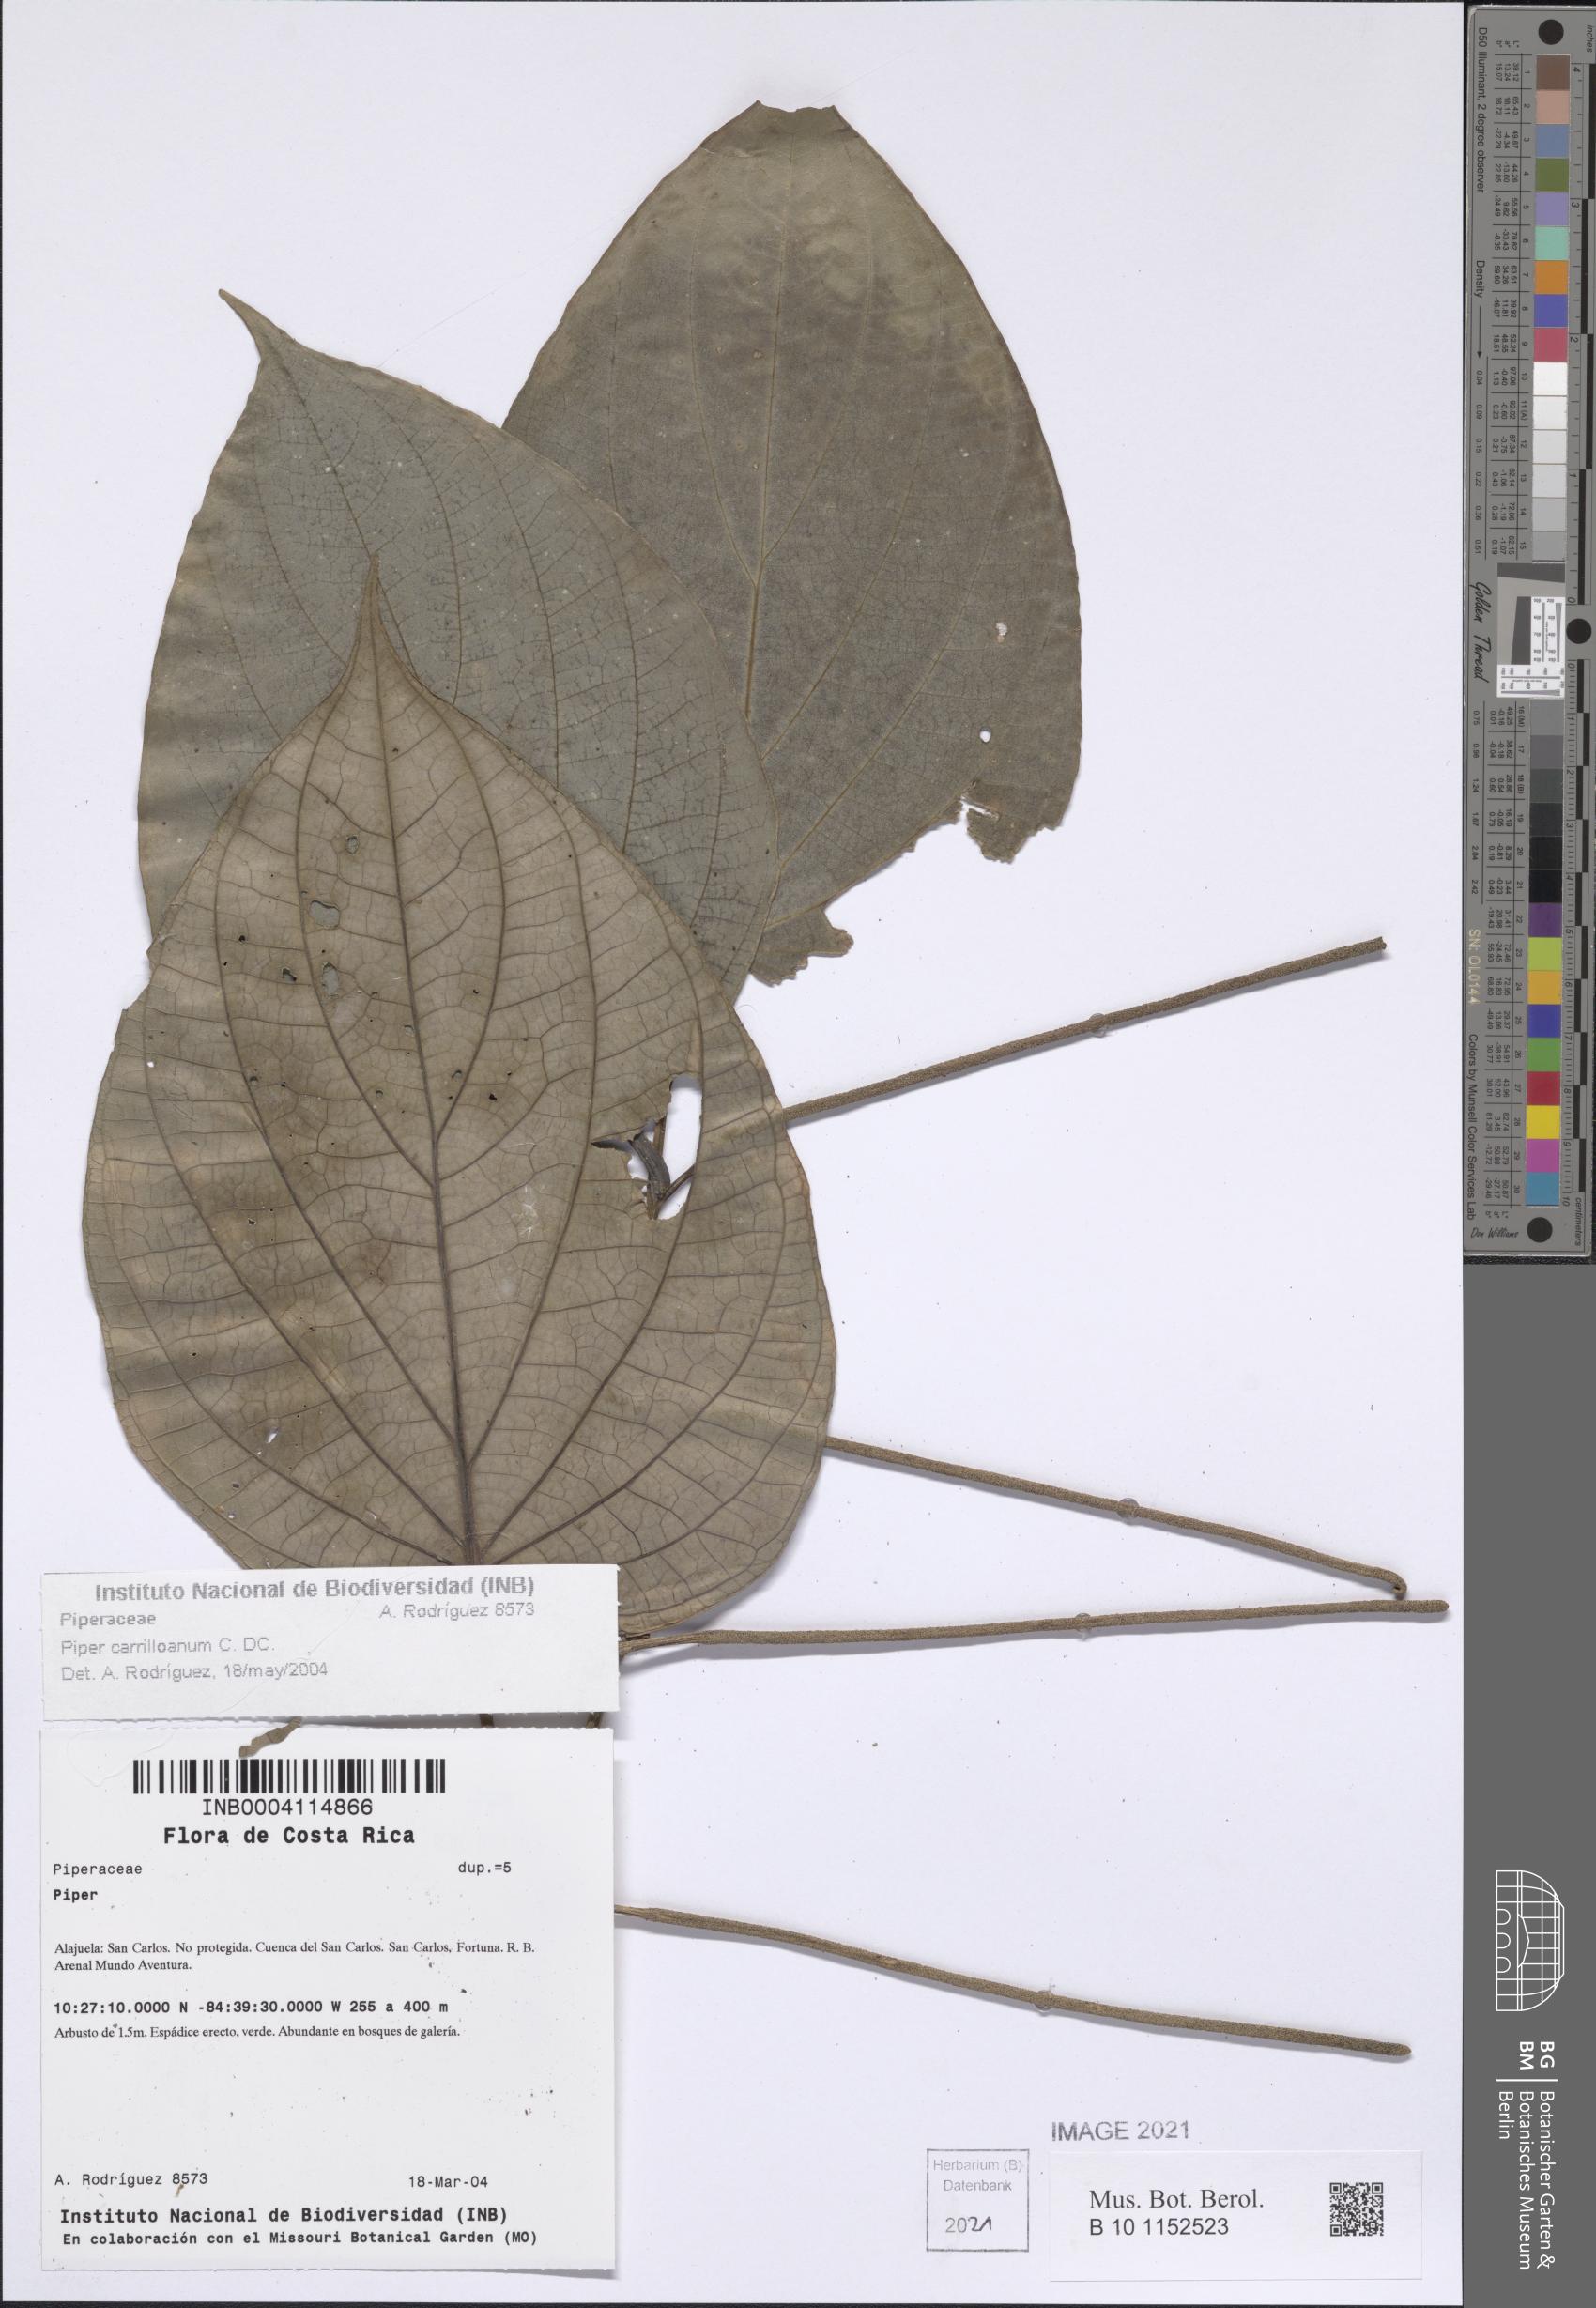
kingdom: Plantae
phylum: Tracheophyta
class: Magnoliopsida
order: Piperales
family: Piperaceae
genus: Piper
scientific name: Piper carrilloanum
